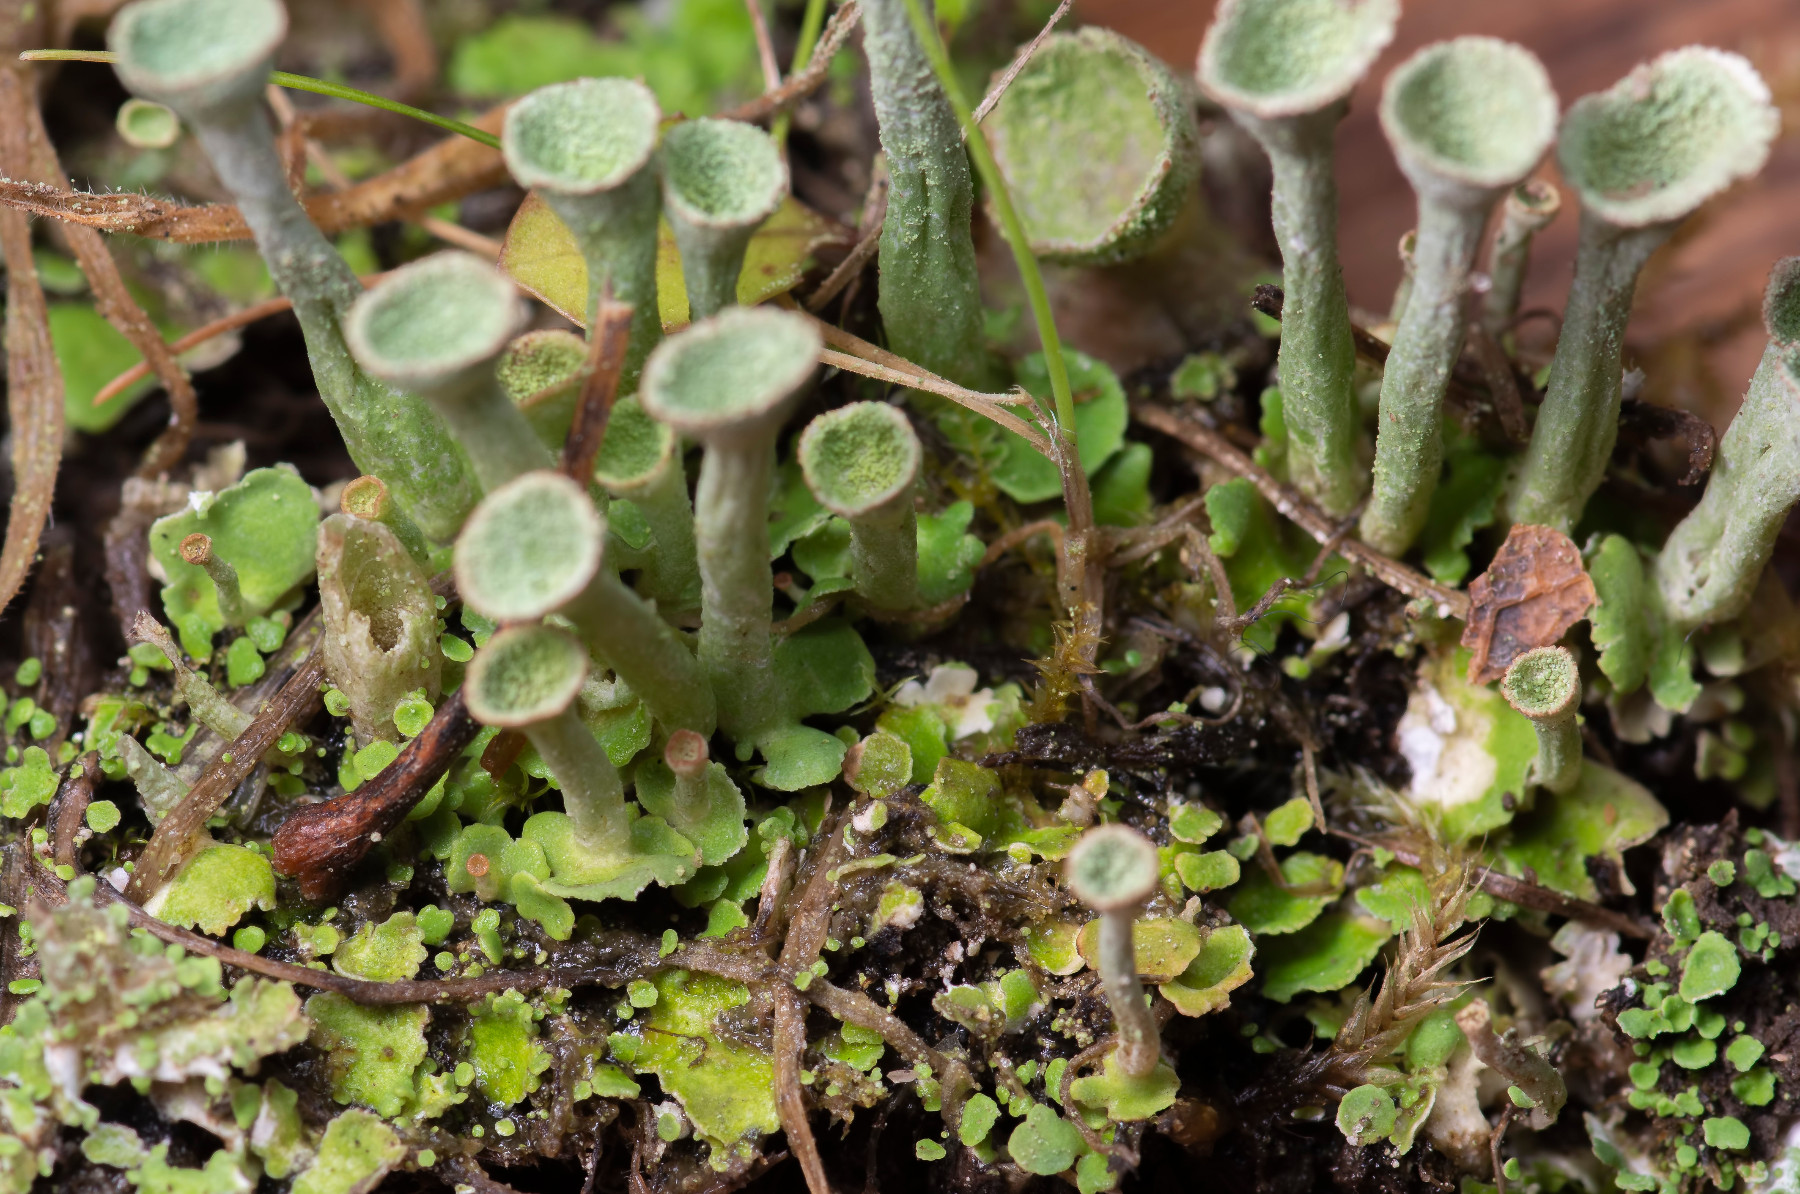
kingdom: Fungi
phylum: Ascomycota
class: Lecanoromycetes
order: Lecanorales
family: Cladoniaceae
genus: Cladonia
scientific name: Cladonia conista
